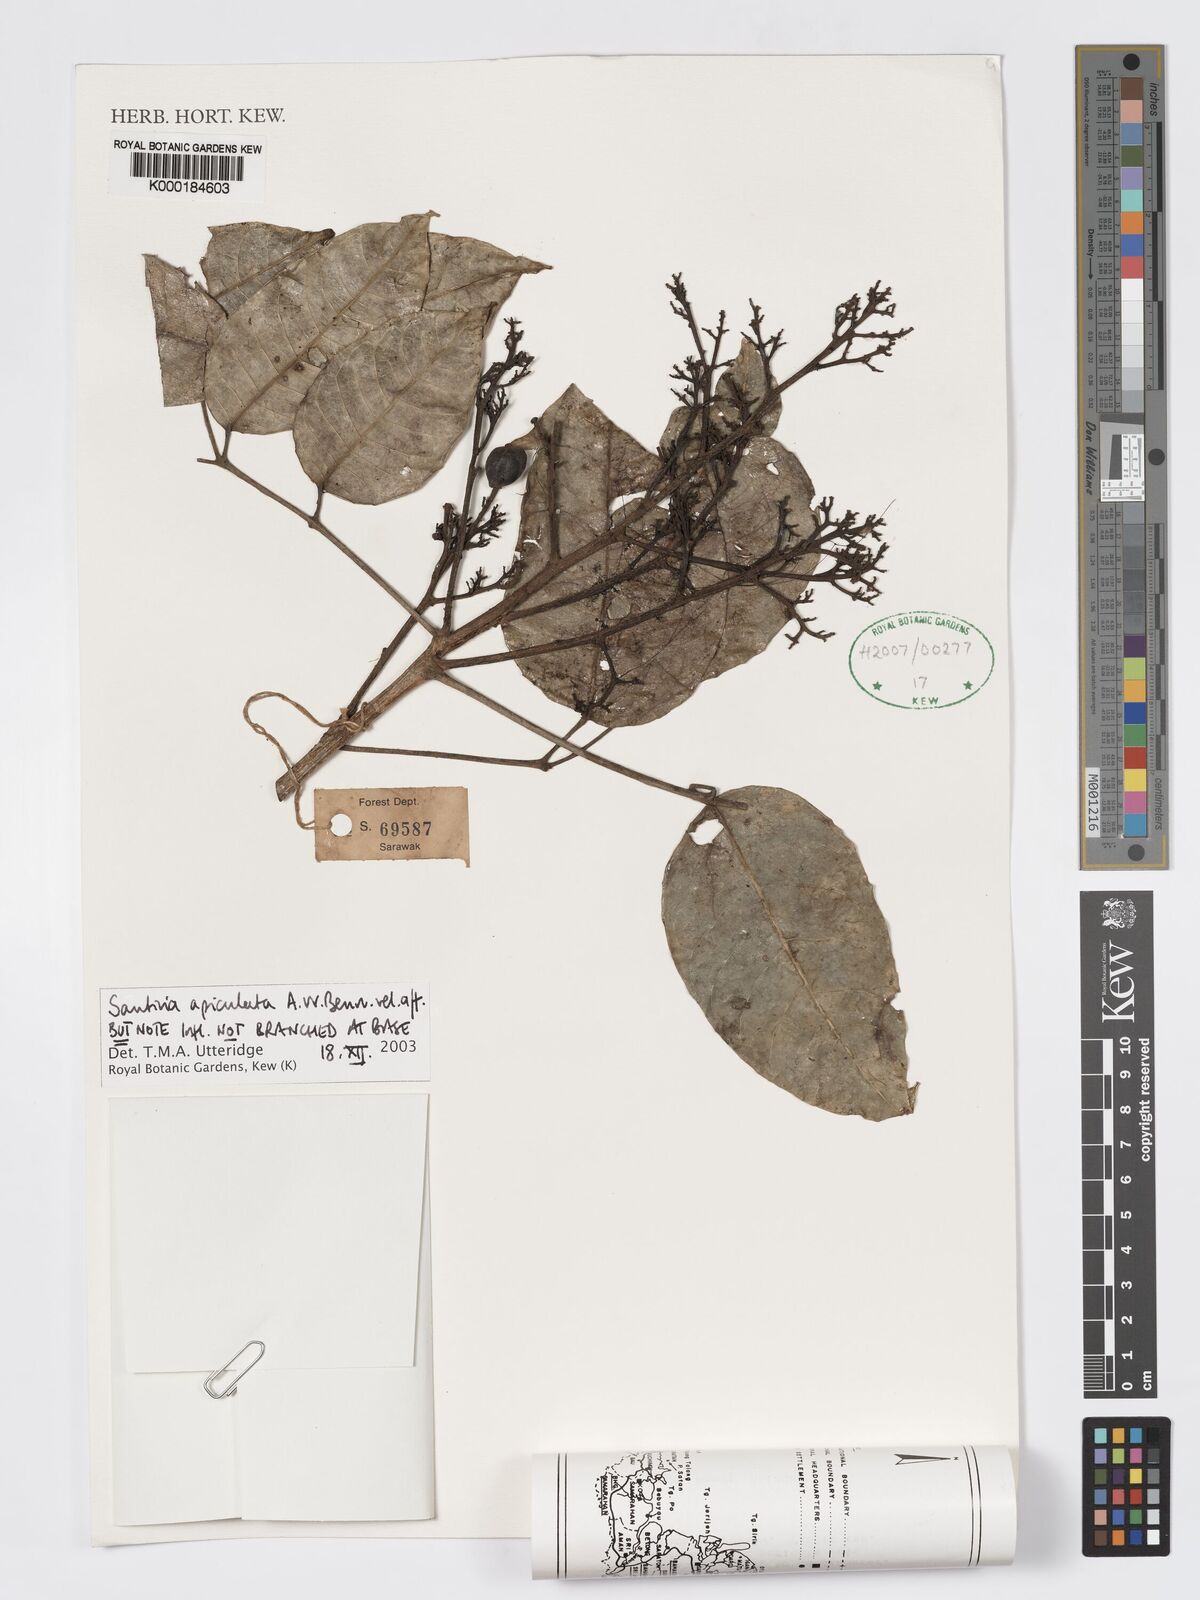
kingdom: Plantae
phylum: Tracheophyta
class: Magnoliopsida
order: Sapindales
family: Burseraceae
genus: Santiria
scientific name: Santiria apiculata
